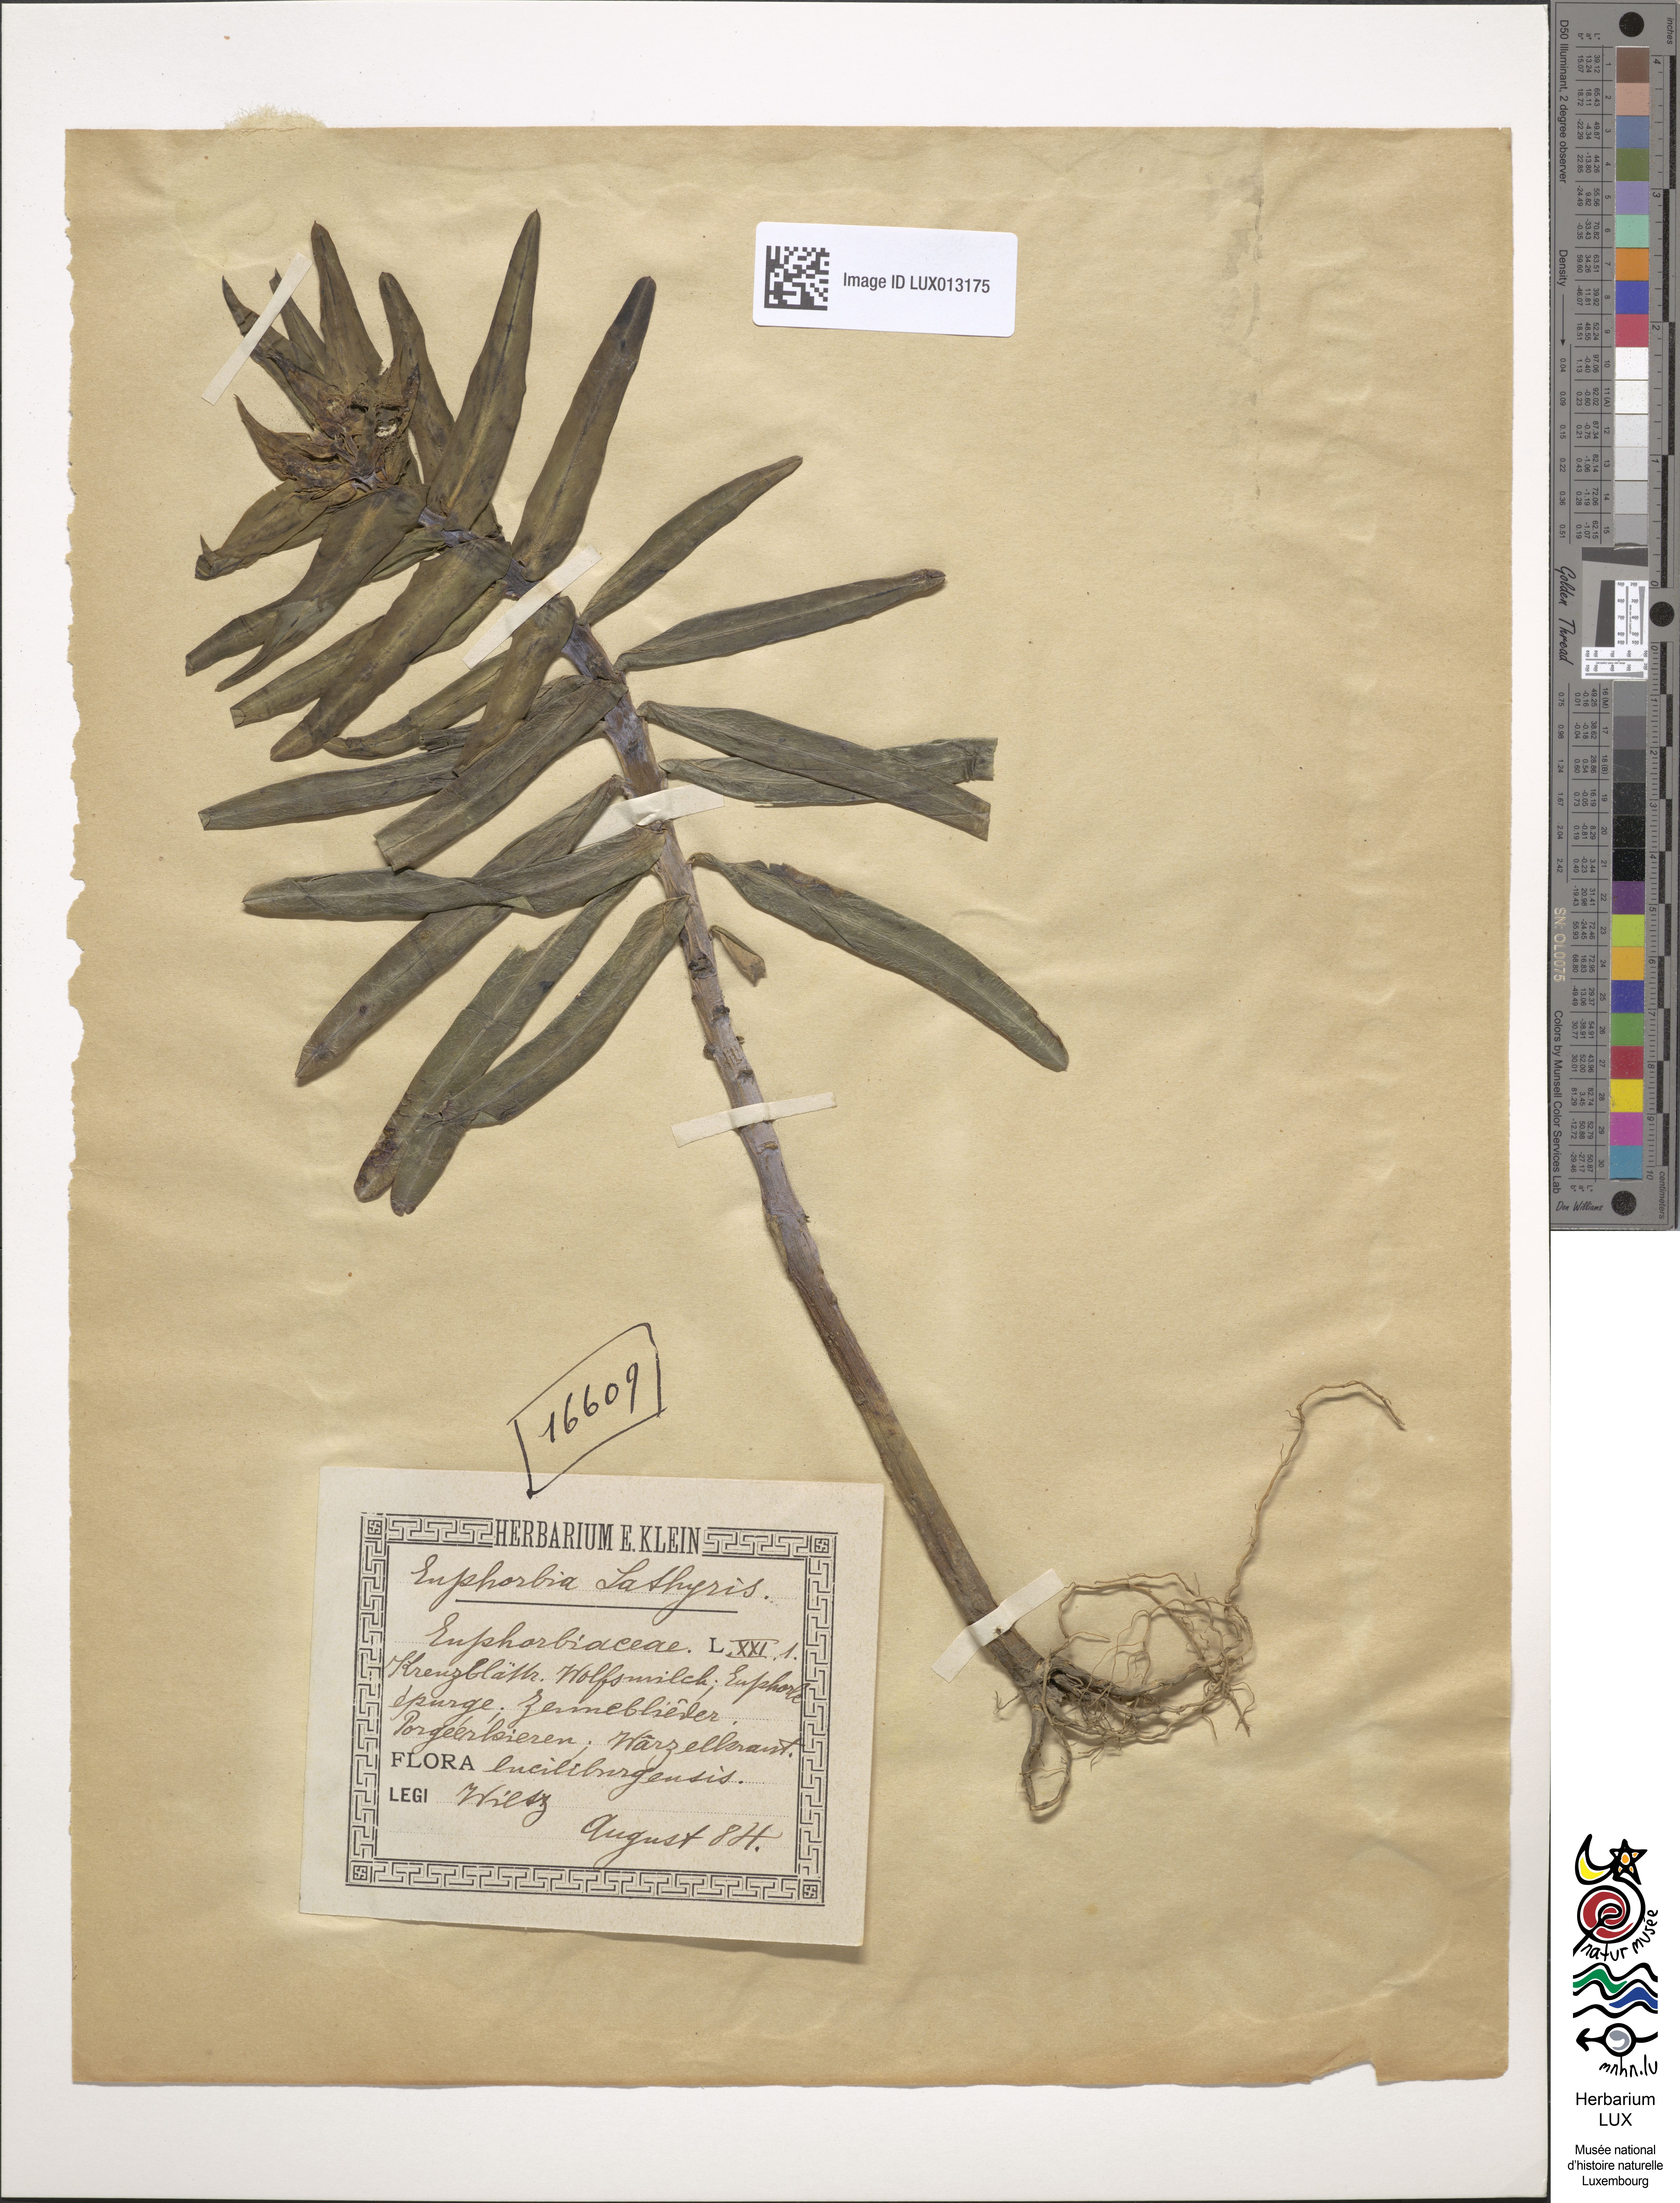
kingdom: Plantae
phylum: Tracheophyta
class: Magnoliopsida
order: Malpighiales
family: Euphorbiaceae
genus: Euphorbia
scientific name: Euphorbia lathyris
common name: Caper spurge
